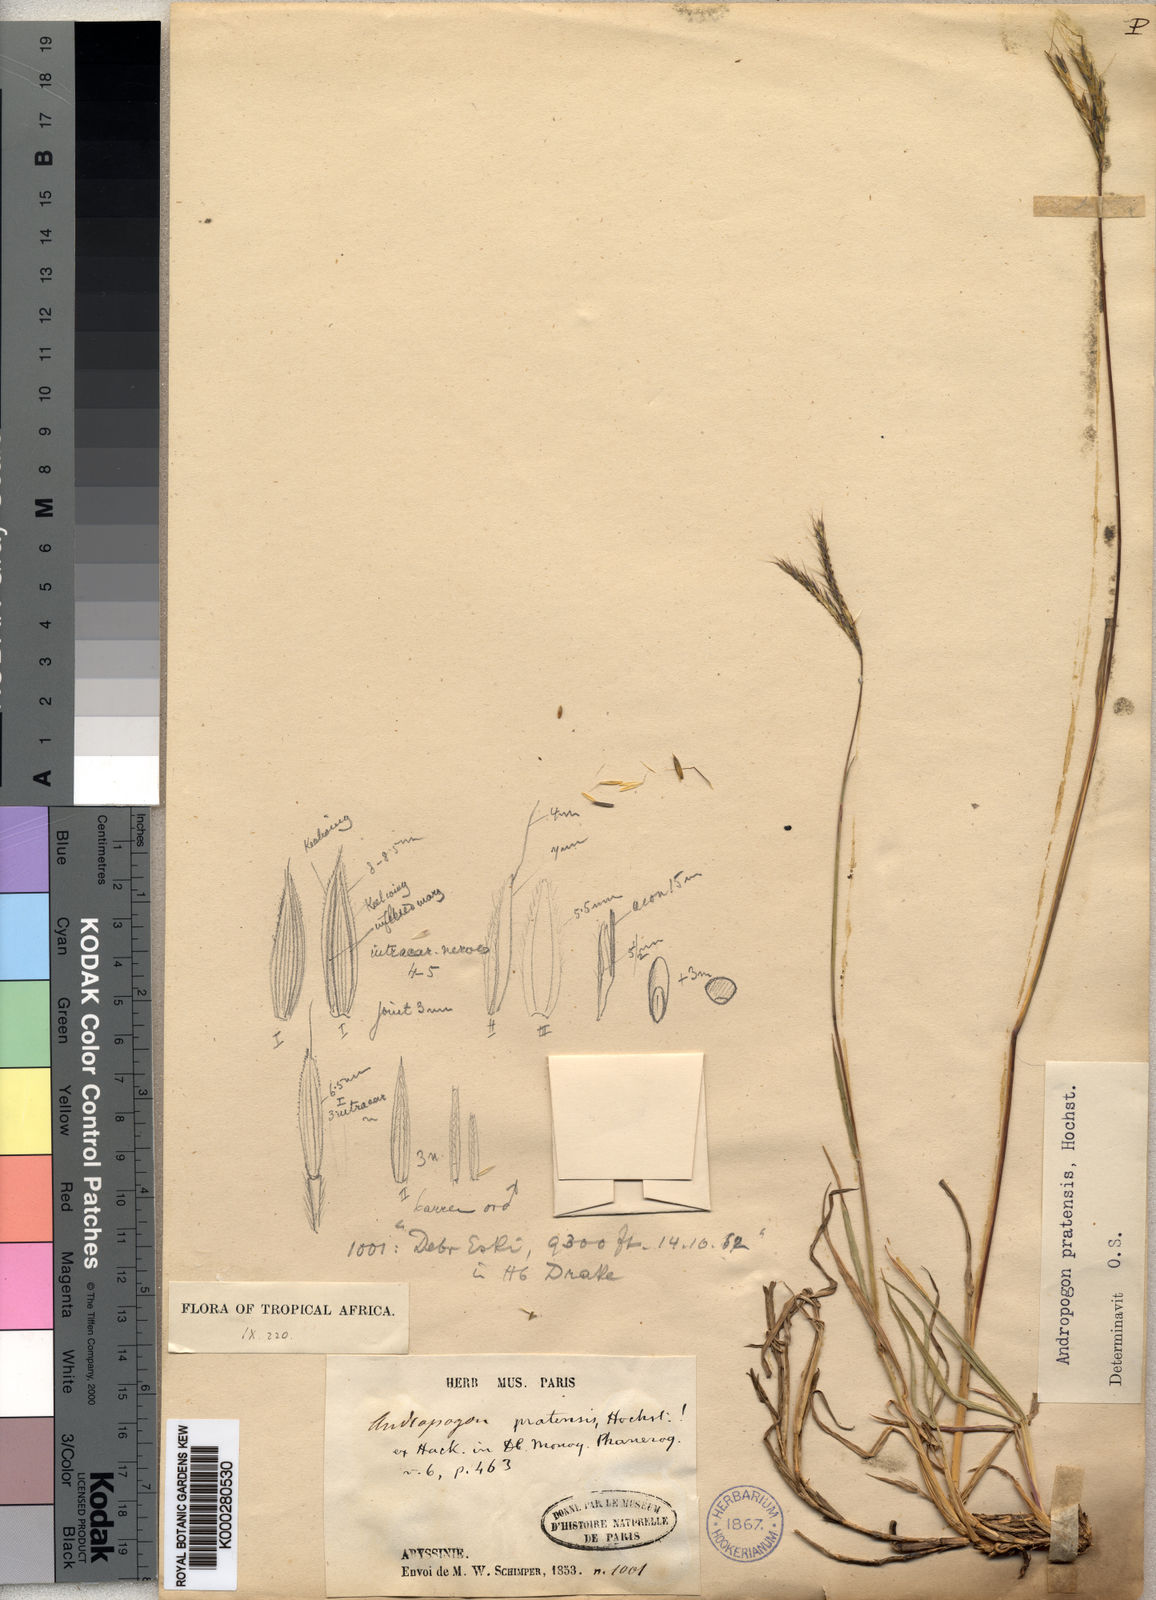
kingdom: Plantae
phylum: Tracheophyta
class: Liliopsida
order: Poales
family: Poaceae
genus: Andropogon
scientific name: Andropogon amethystinus
